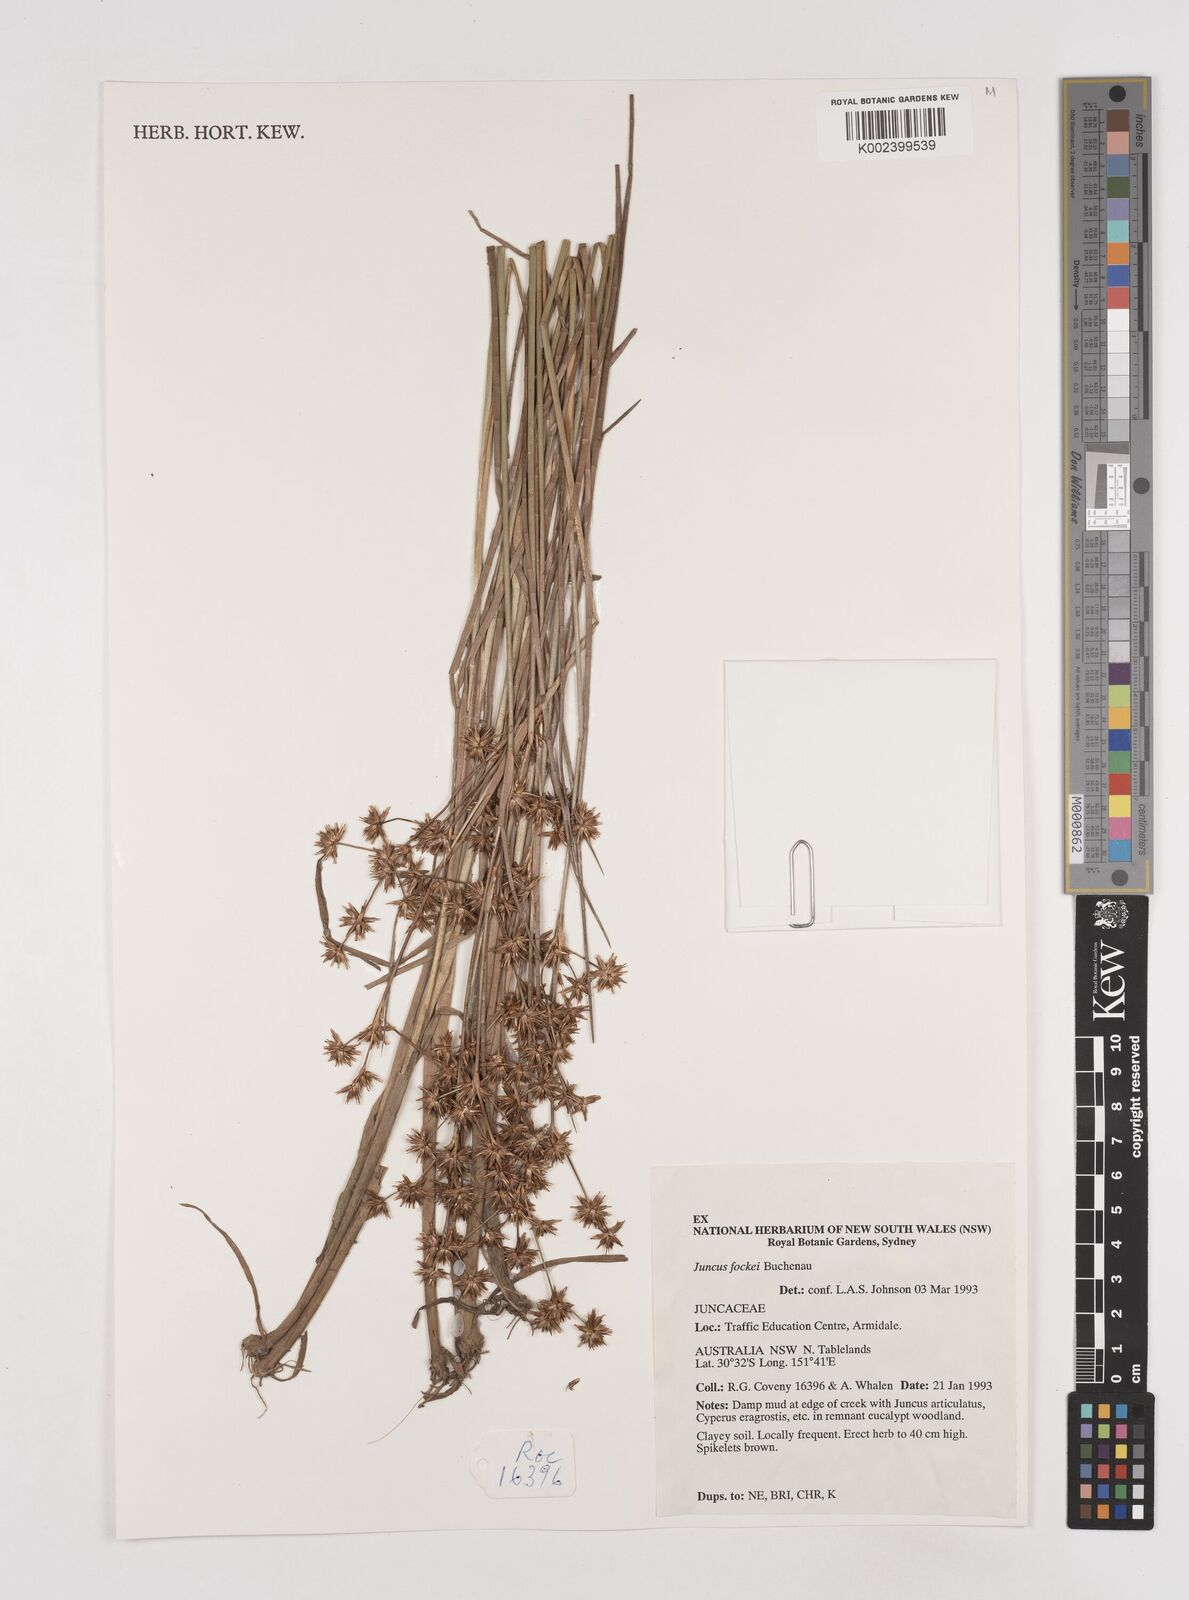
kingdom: Plantae
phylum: Tracheophyta
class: Liliopsida
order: Poales
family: Juncaceae
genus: Juncus
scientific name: Juncus holoschoenus
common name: Joint-leaf rush
